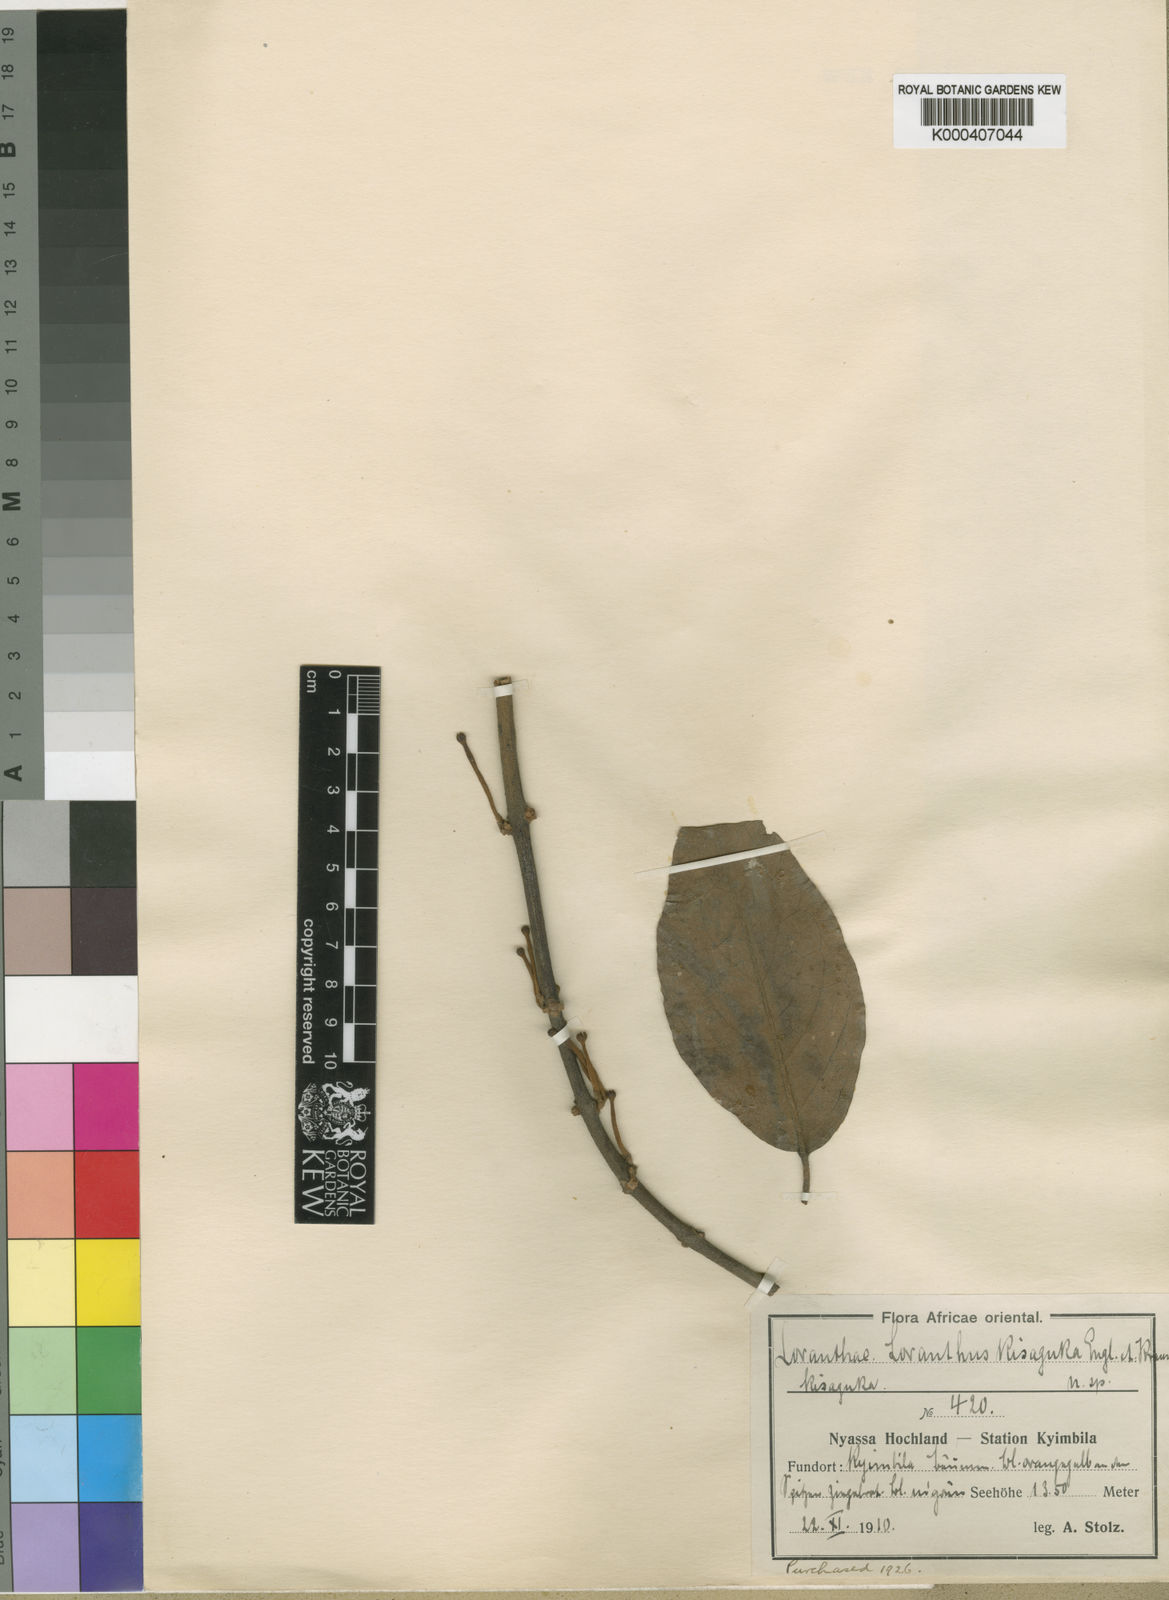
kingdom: Plantae
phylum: Tracheophyta
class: Magnoliopsida
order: Santalales
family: Loranthaceae
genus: Phragmanthera
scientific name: Phragmanthera usuiensis
